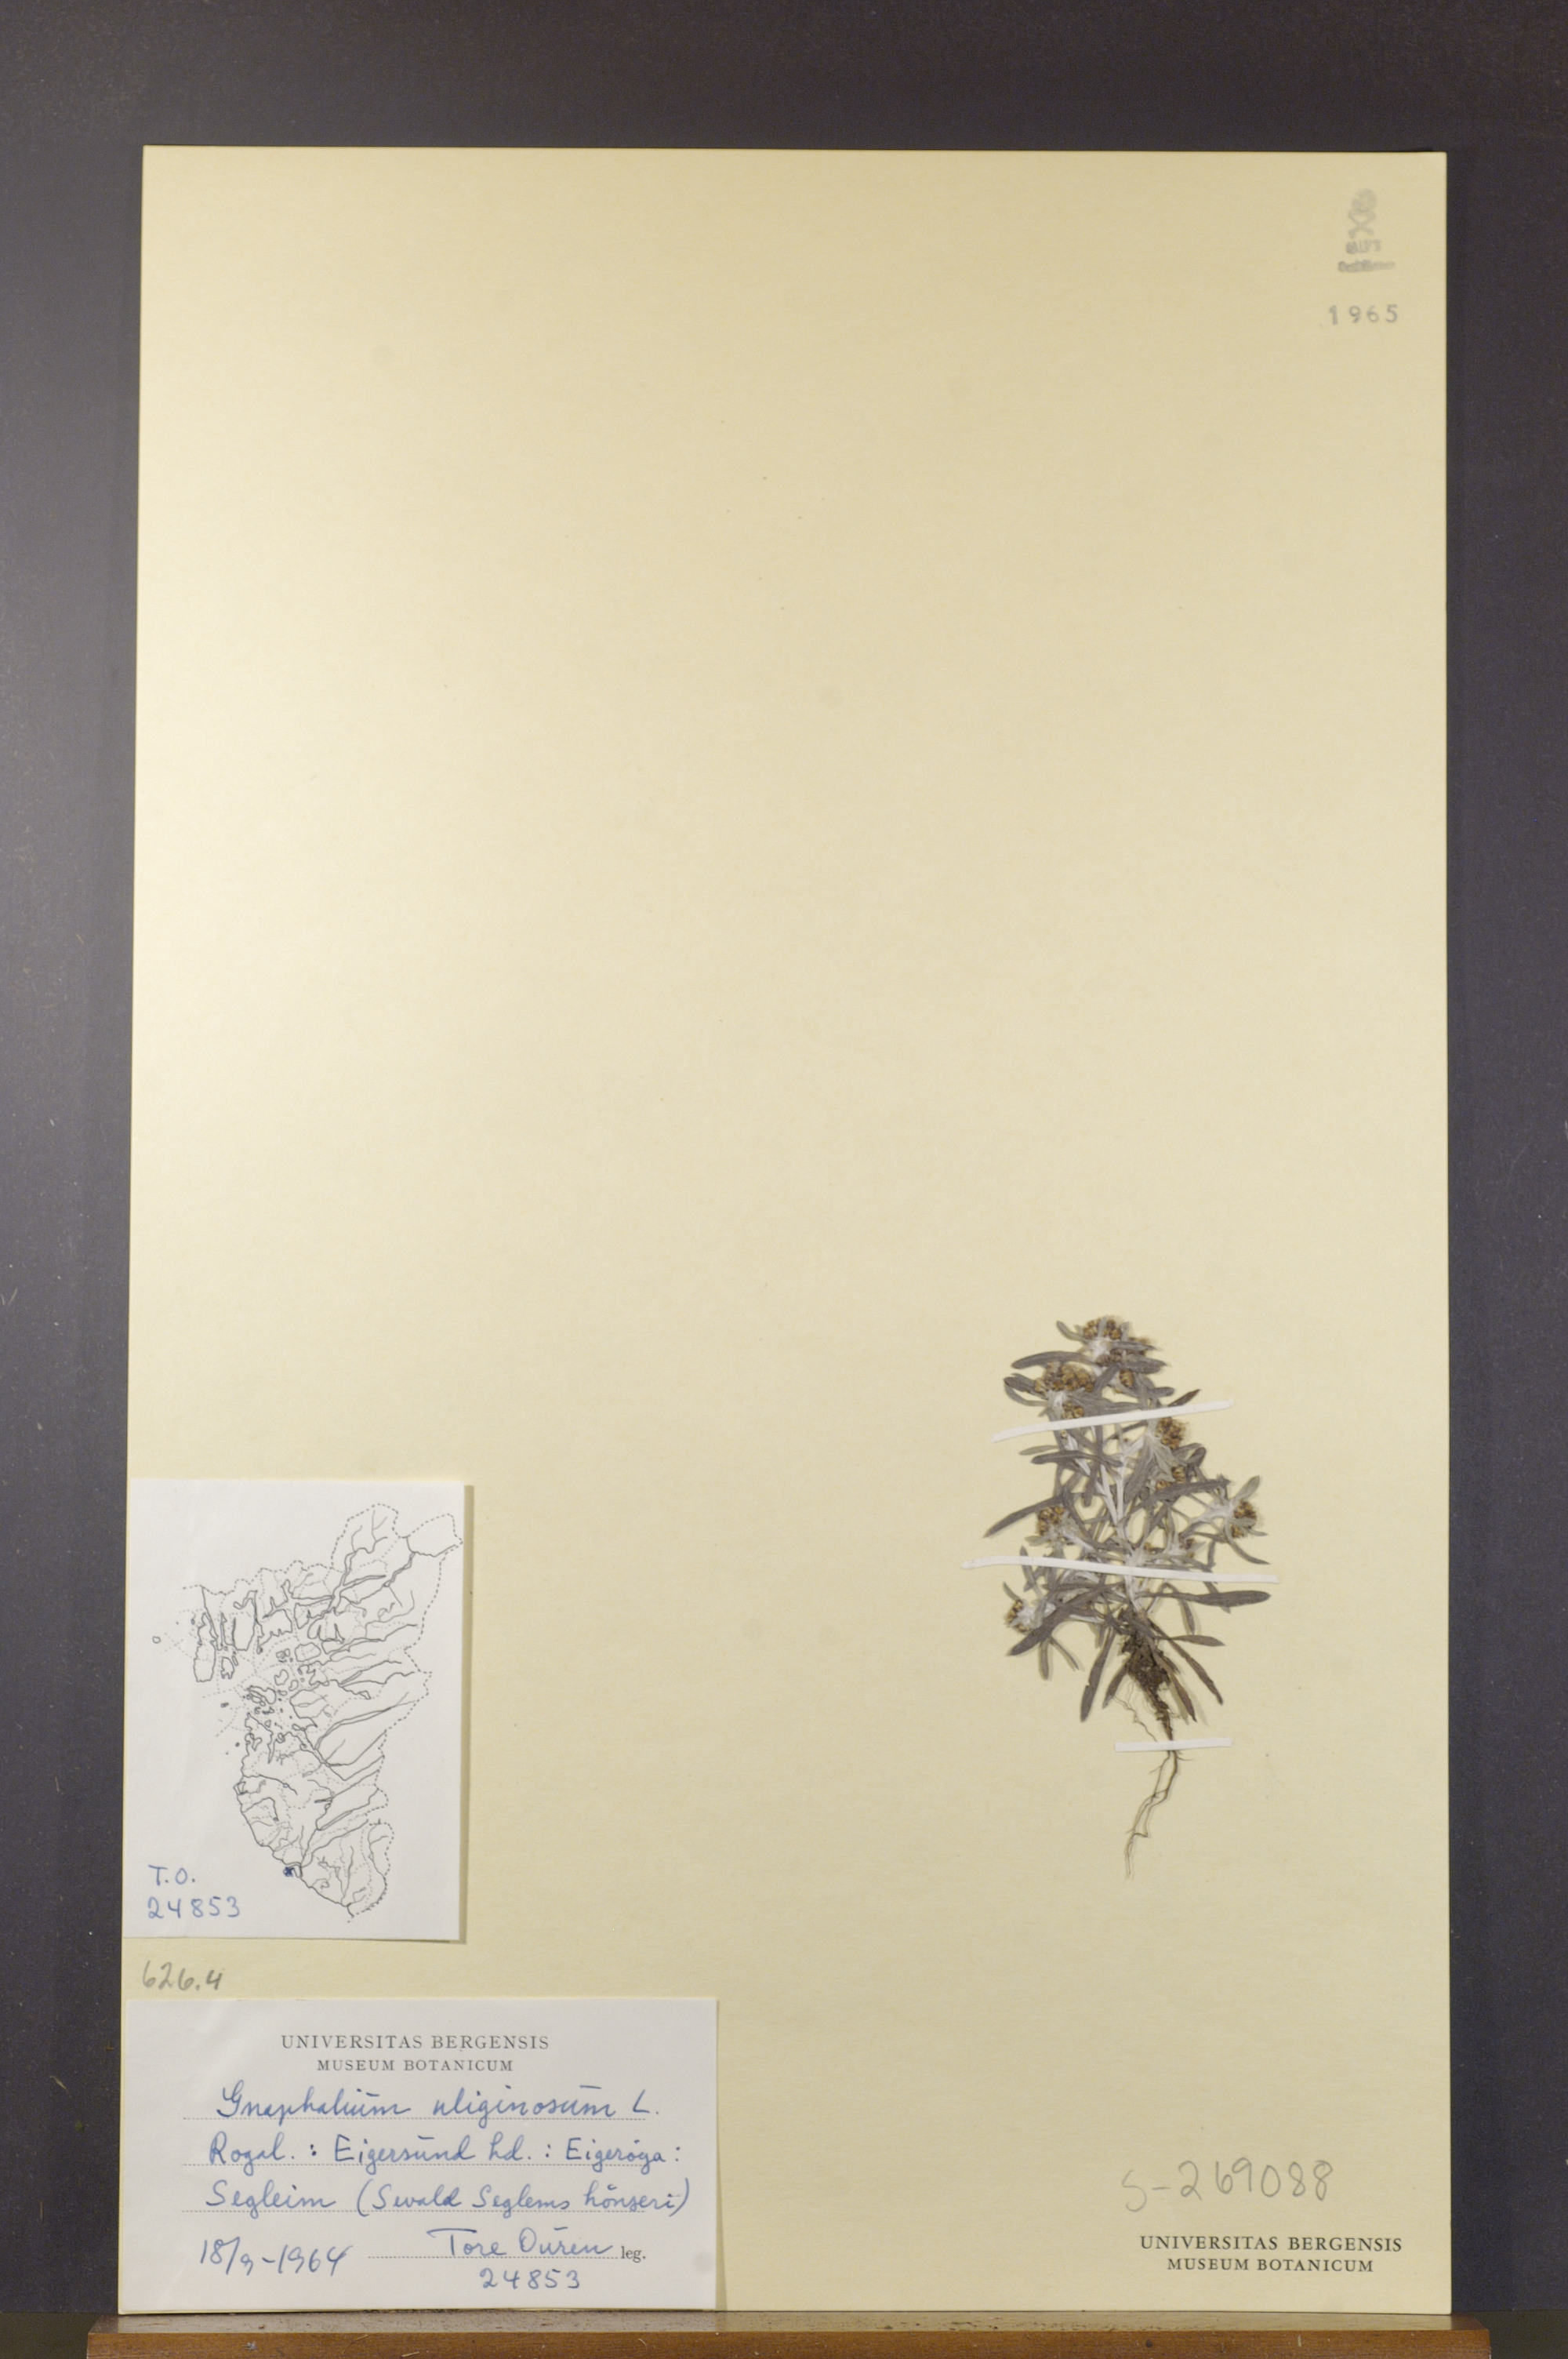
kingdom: Plantae
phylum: Tracheophyta
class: Magnoliopsida
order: Asterales
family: Asteraceae
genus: Gnaphalium
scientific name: Gnaphalium uliginosum
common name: Marsh cudweed
